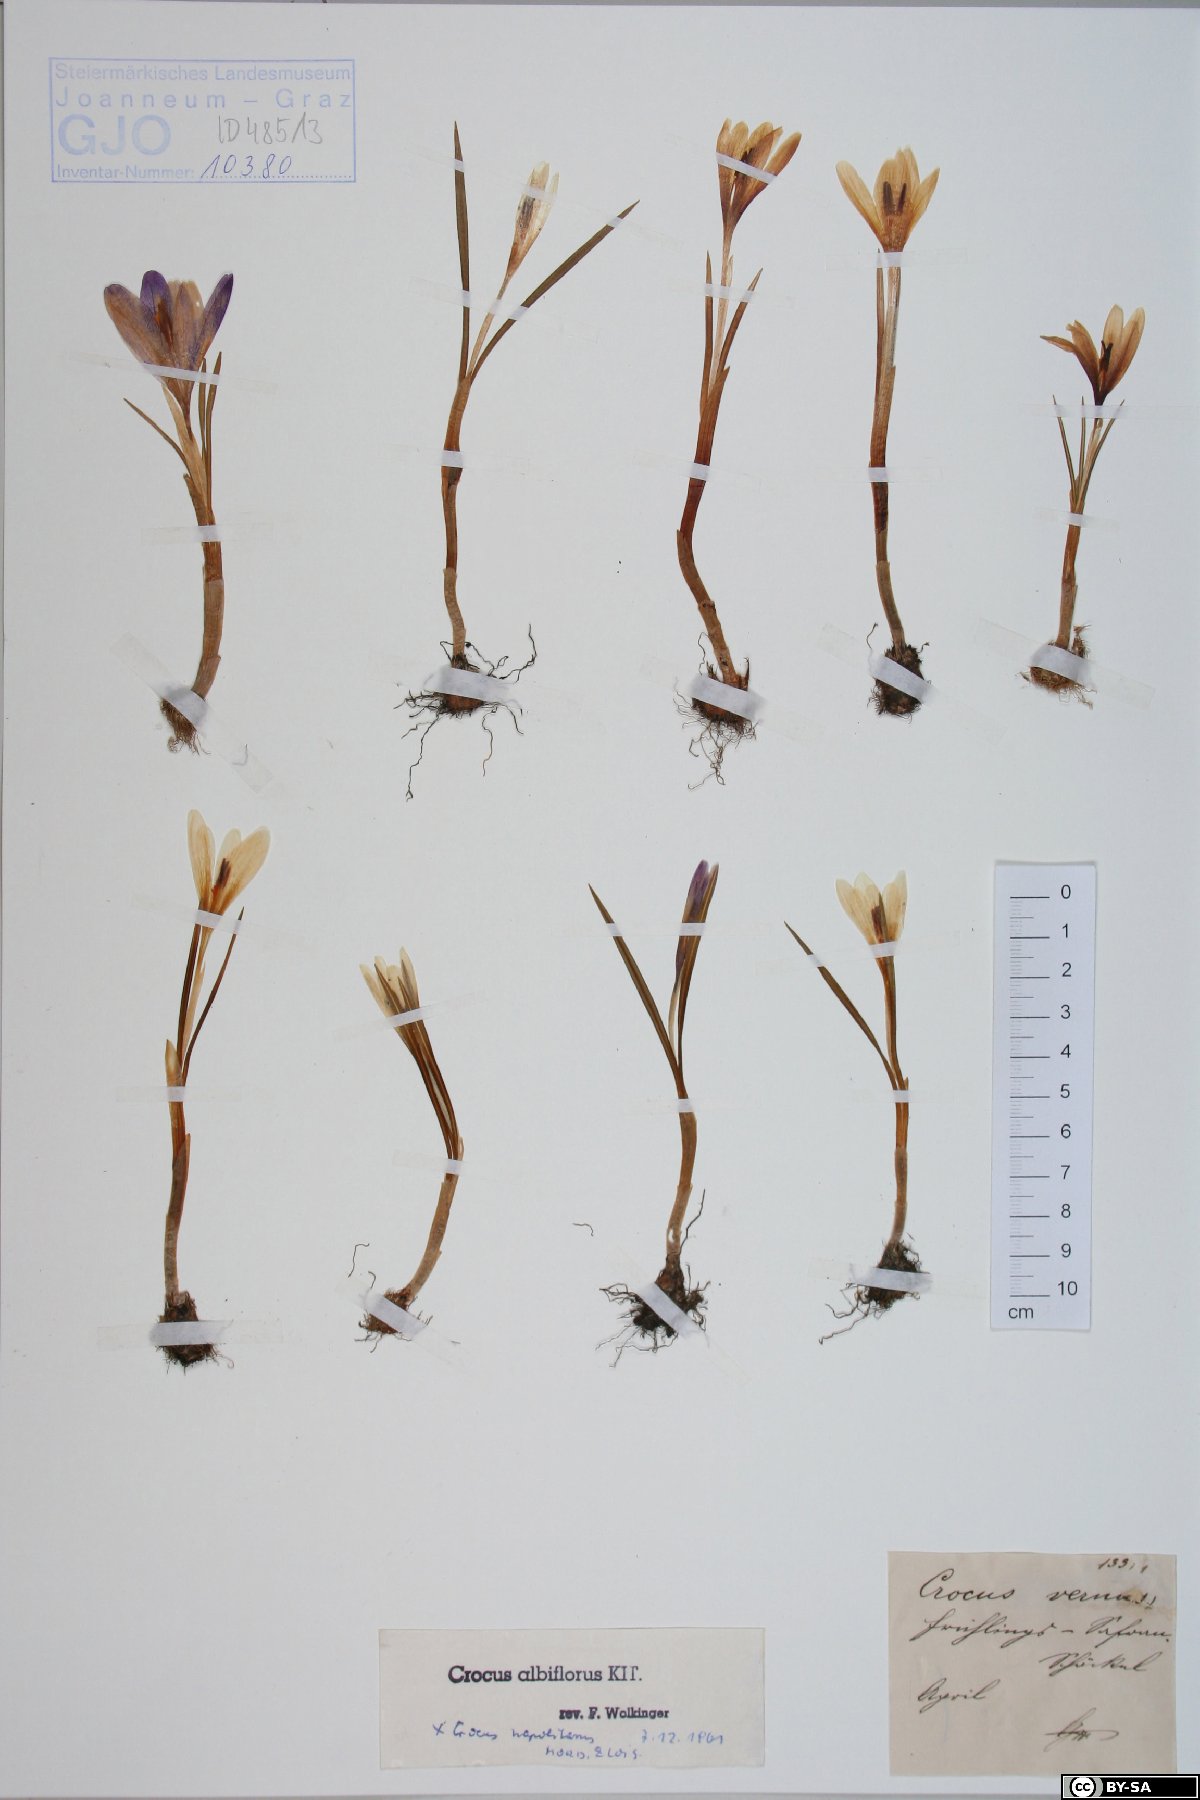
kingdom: Plantae
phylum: Tracheophyta
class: Liliopsida
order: Asparagales
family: Iridaceae
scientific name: Iridaceae
